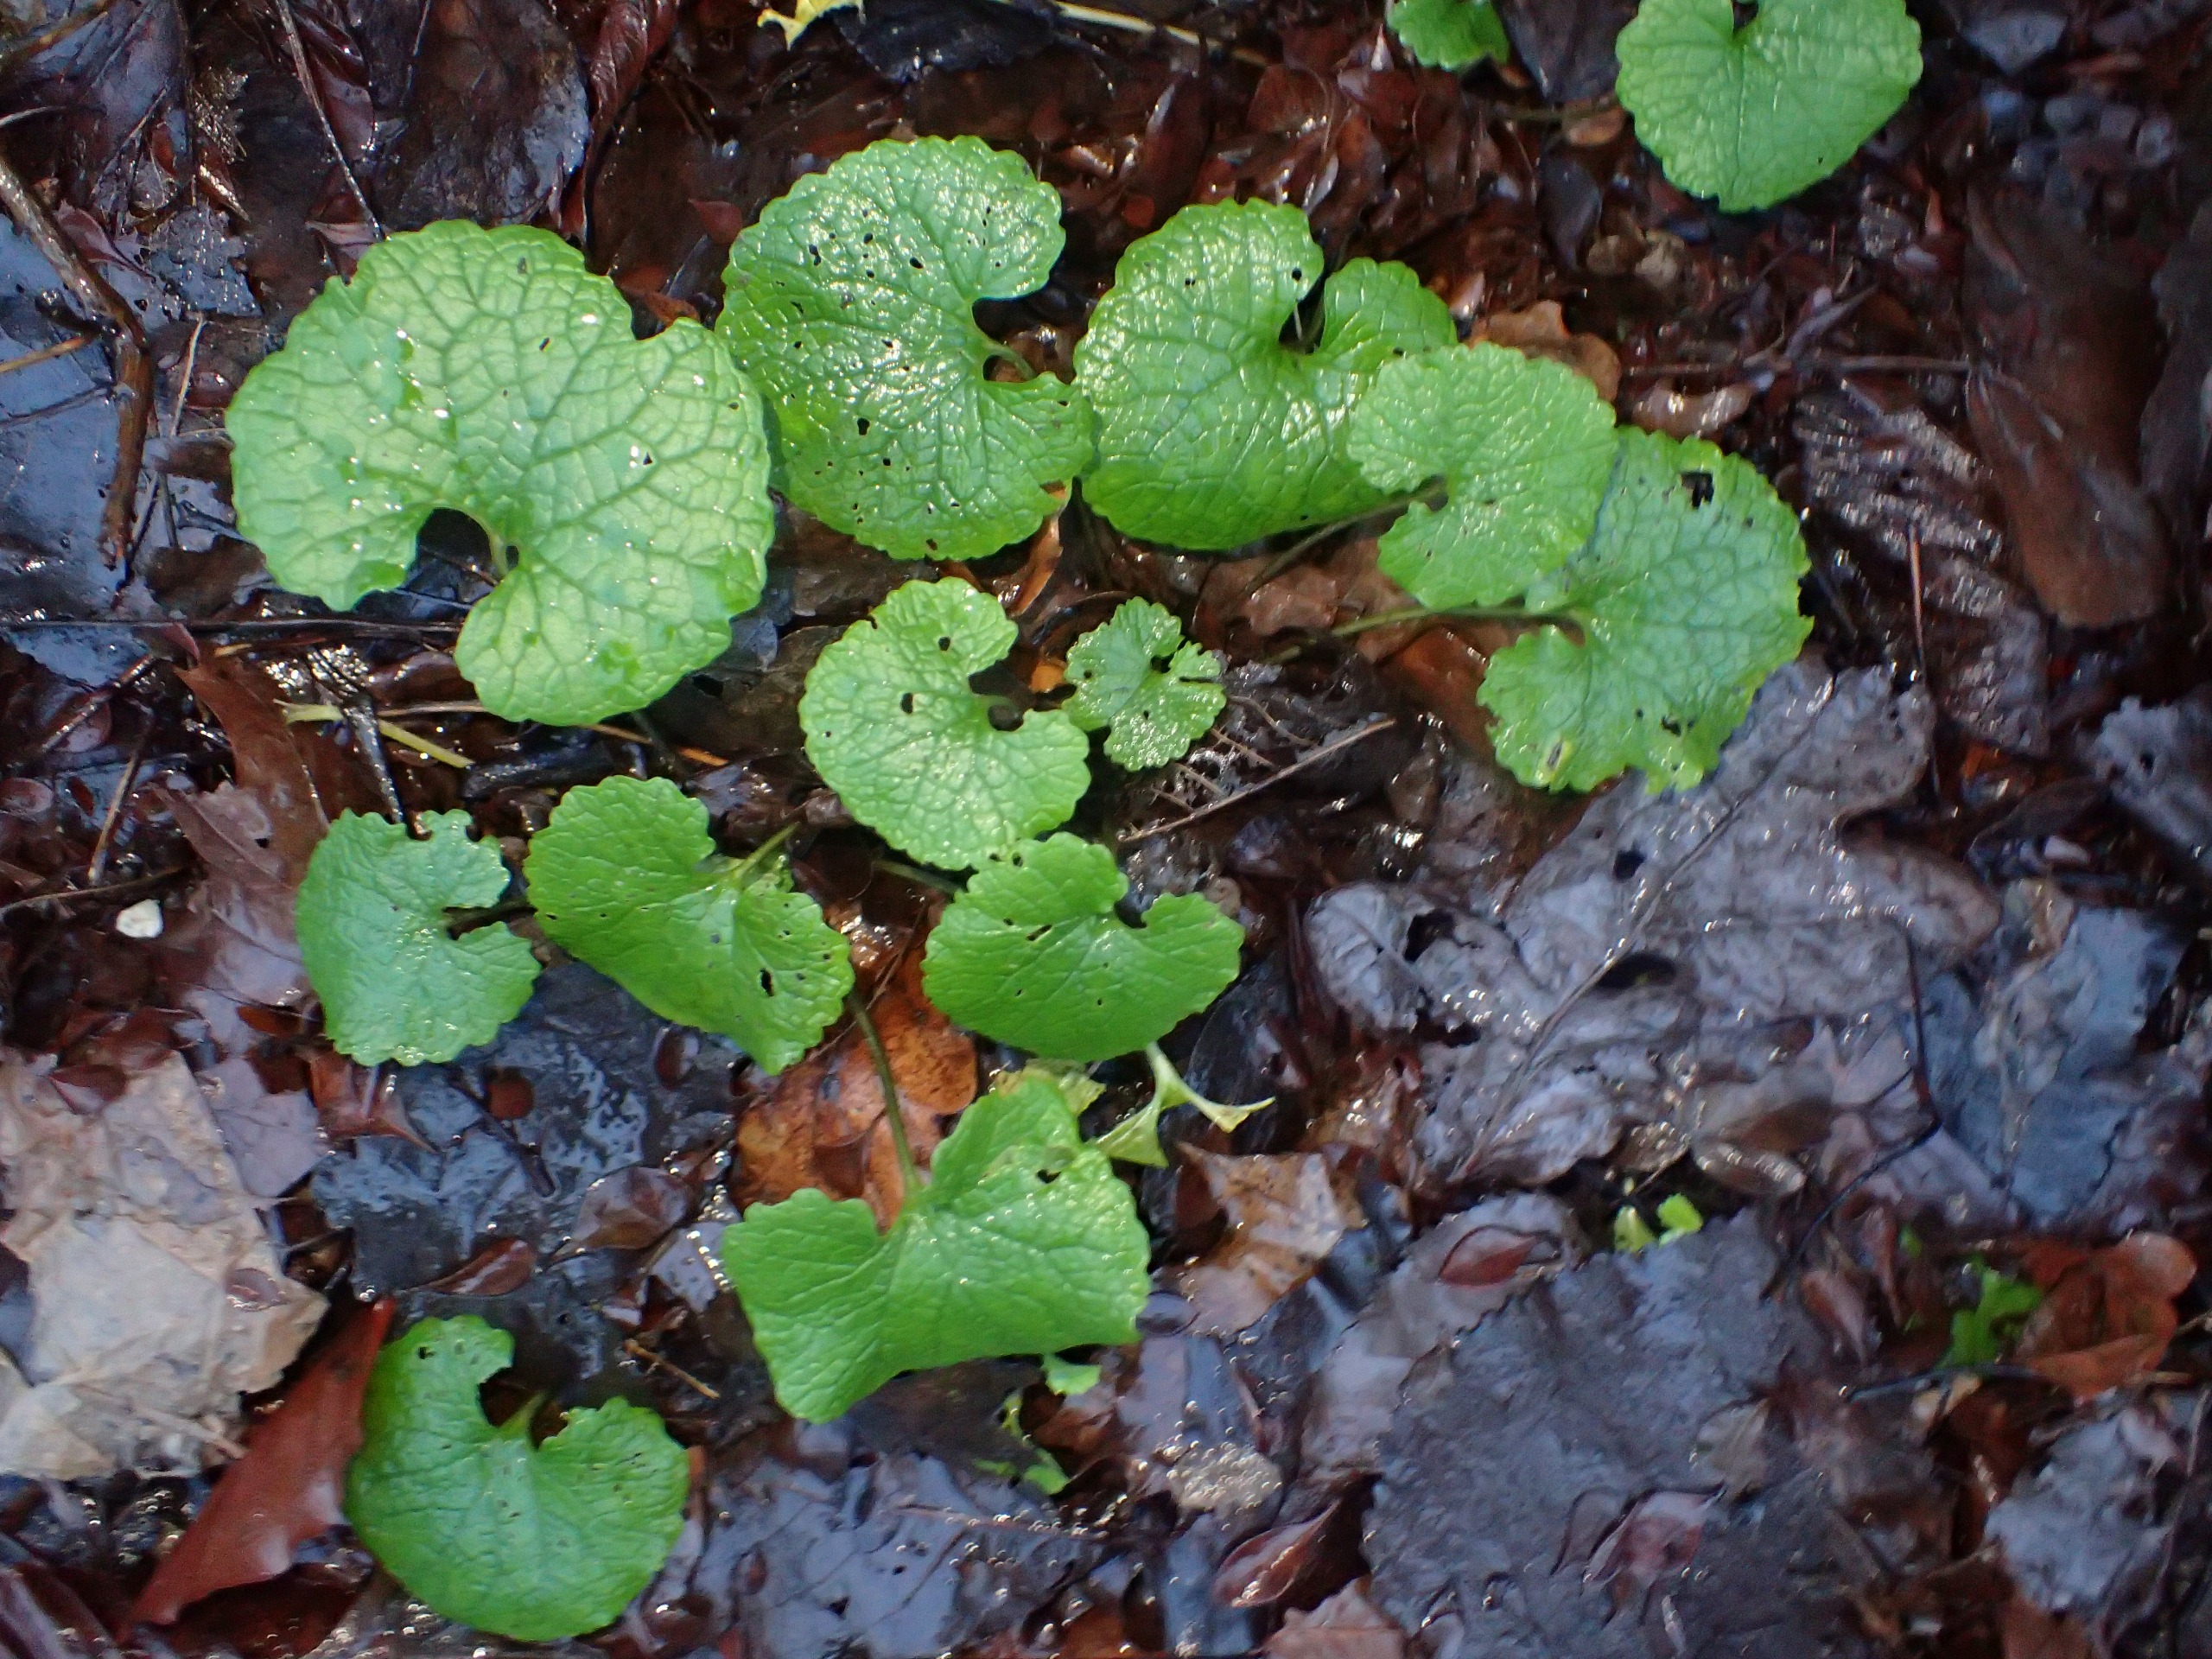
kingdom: Plantae
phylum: Tracheophyta
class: Magnoliopsida
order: Brassicales
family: Brassicaceae
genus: Alliaria
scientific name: Alliaria petiolata
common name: Løgkarse
